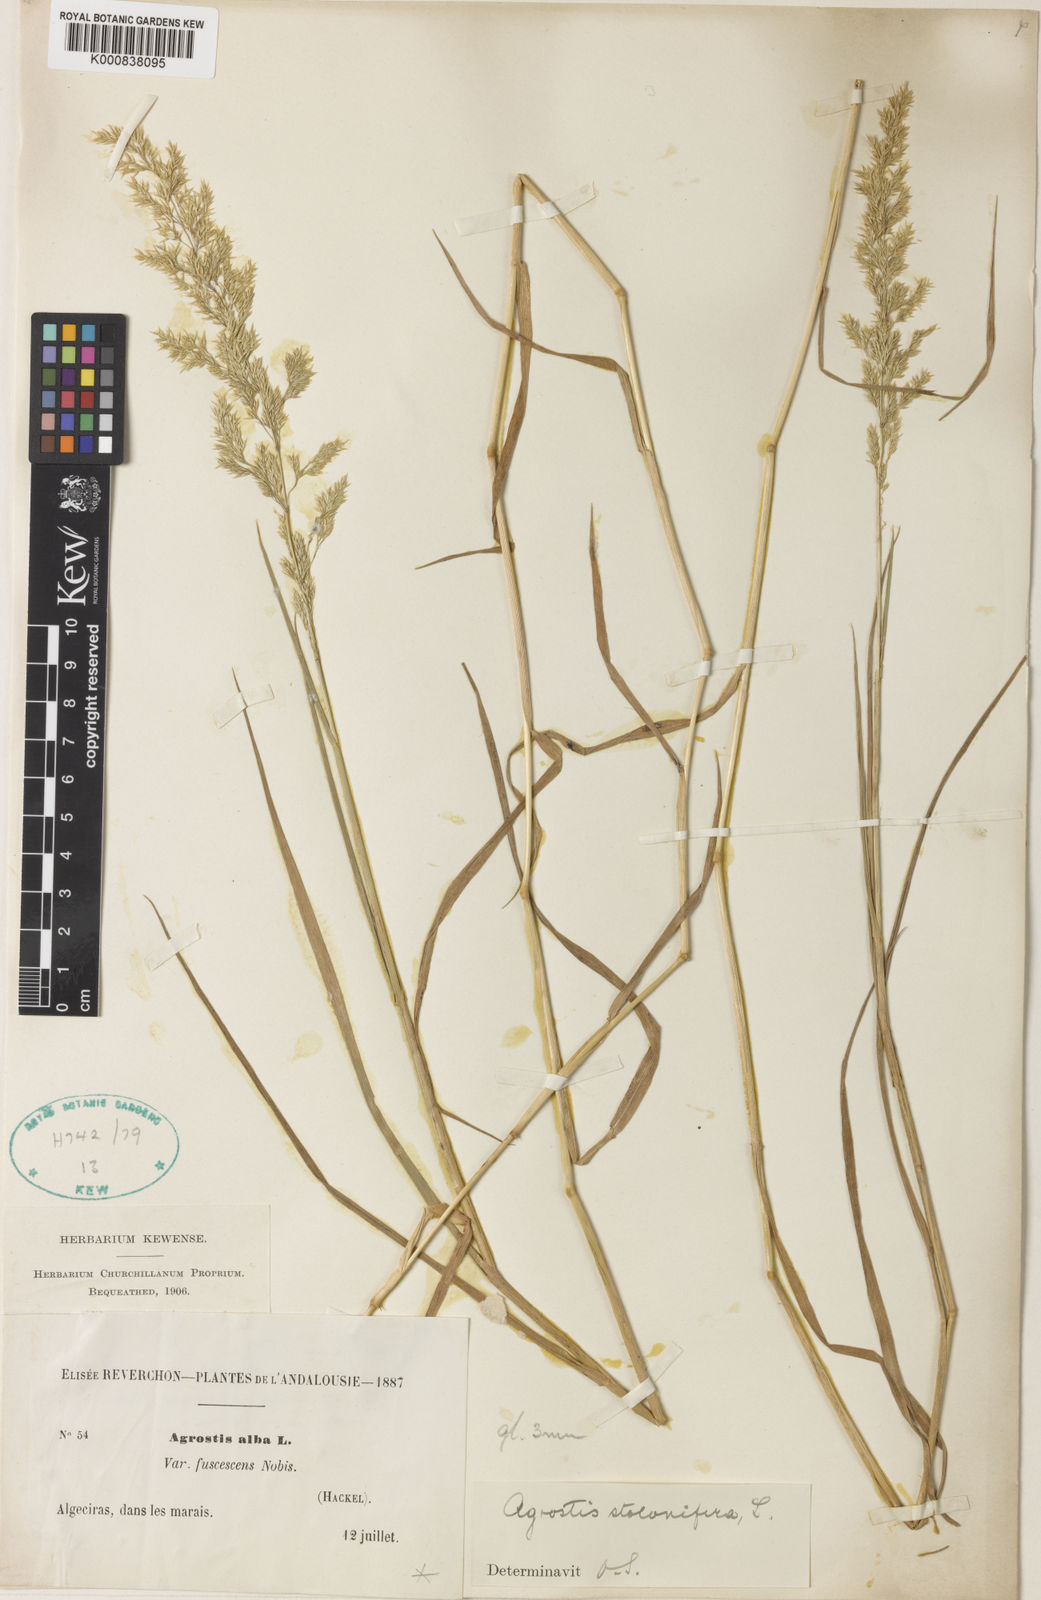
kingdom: Plantae
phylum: Tracheophyta
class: Liliopsida
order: Poales
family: Poaceae
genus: Agrostis
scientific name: Agrostis stolonifera
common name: Creeping bentgrass
